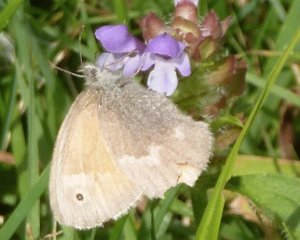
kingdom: Animalia
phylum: Arthropoda
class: Insecta
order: Lepidoptera
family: Nymphalidae
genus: Coenonympha
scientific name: Coenonympha tullia
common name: Large Heath
